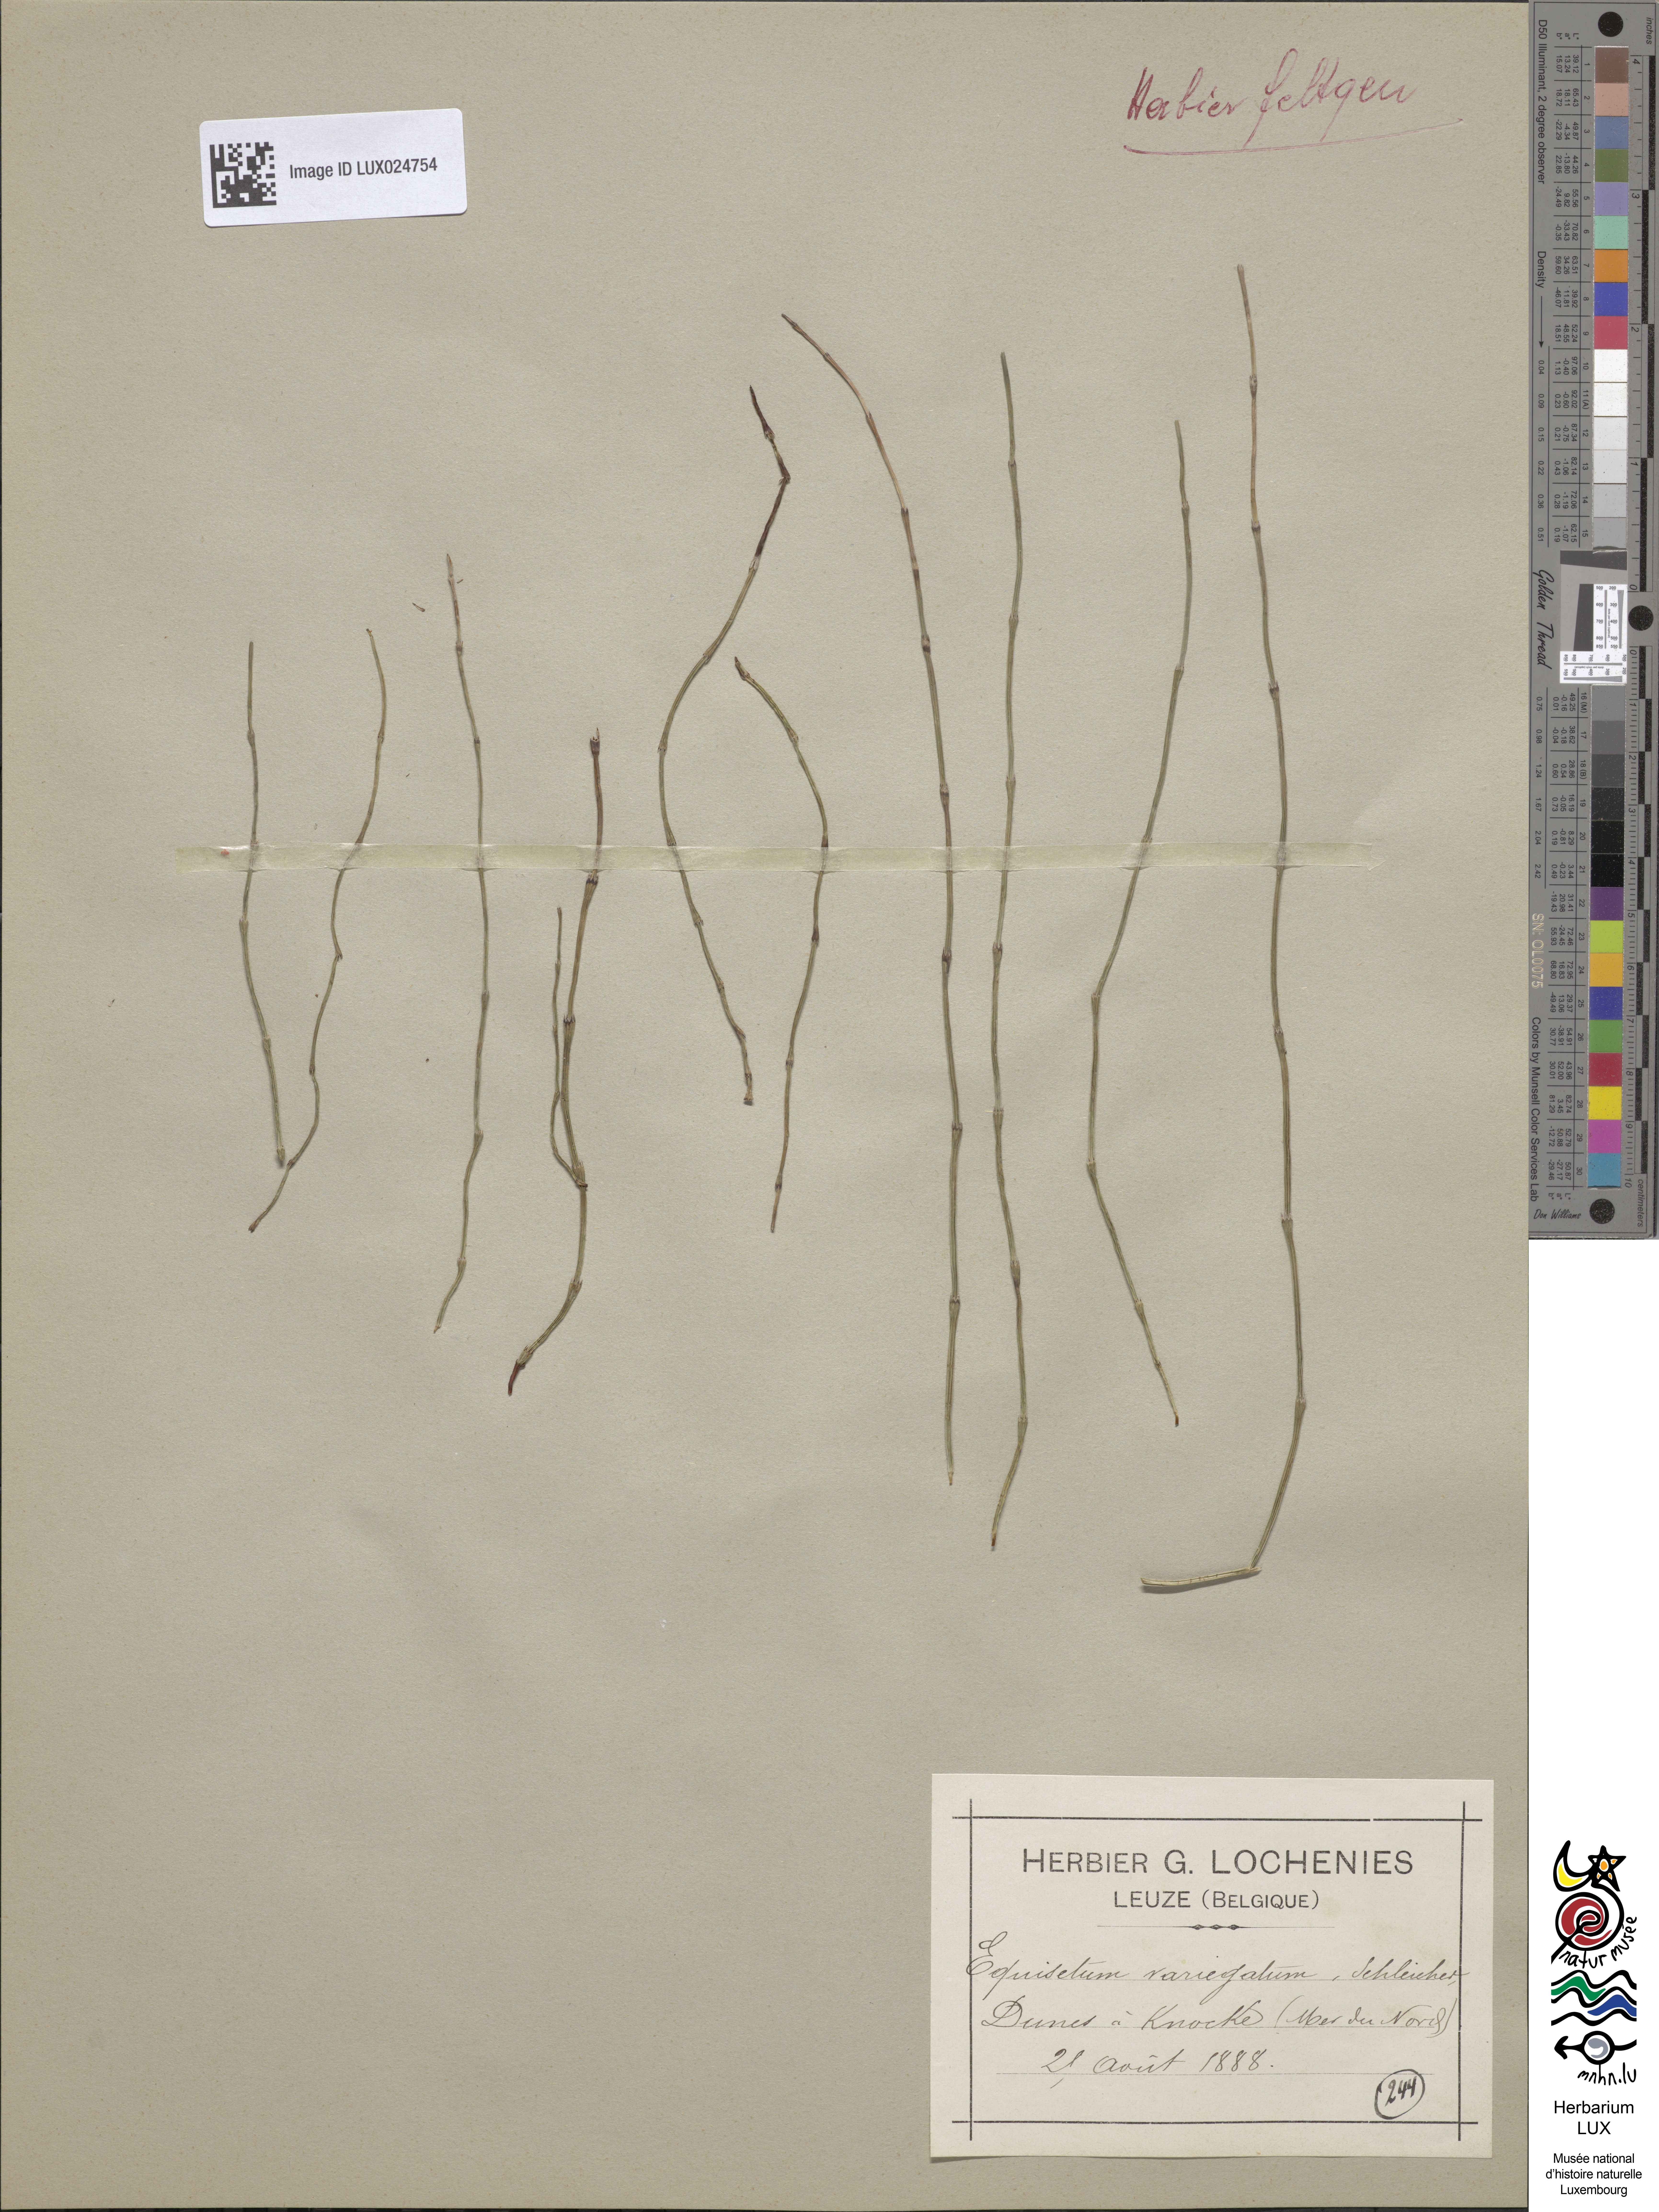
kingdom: Plantae
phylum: Tracheophyta
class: Polypodiopsida
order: Equisetales
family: Equisetaceae
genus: Equisetum
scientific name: Equisetum variegatum
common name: Variegated horsetail
